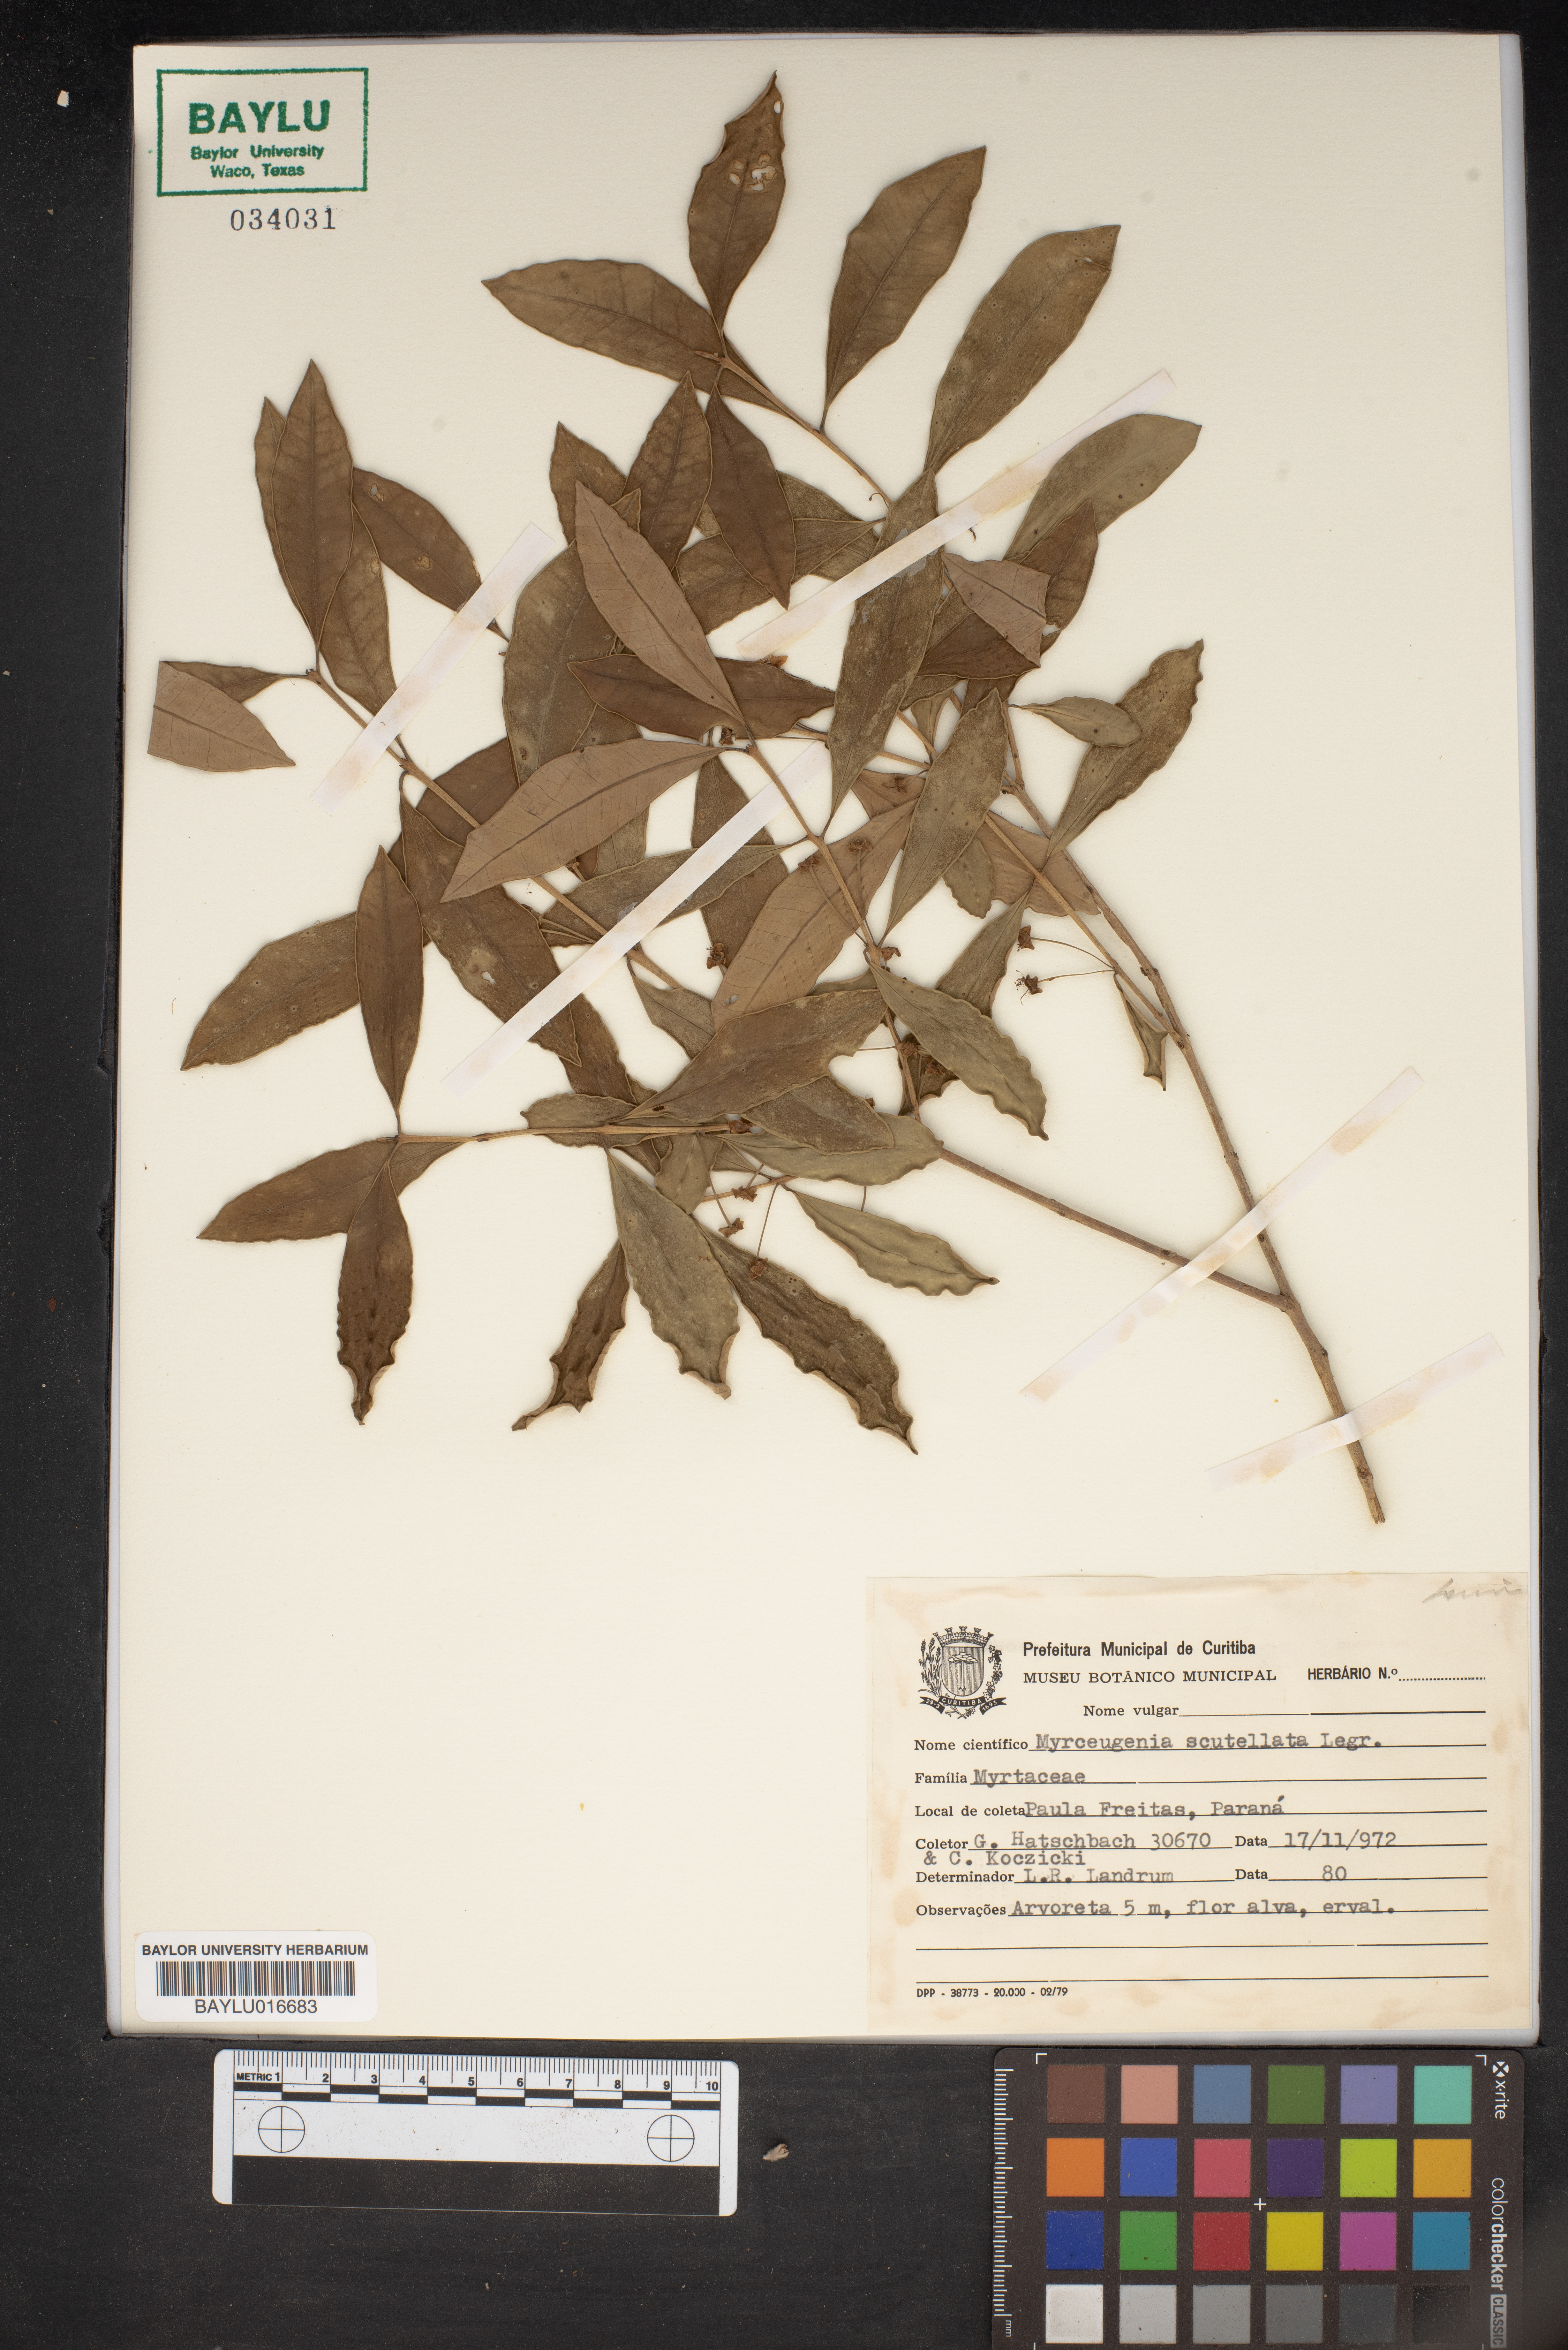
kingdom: Plantae
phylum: Tracheophyta
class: Magnoliopsida
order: Myrtales
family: Myrtaceae
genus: Myrceugenia
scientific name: Myrceugenia scutellata
